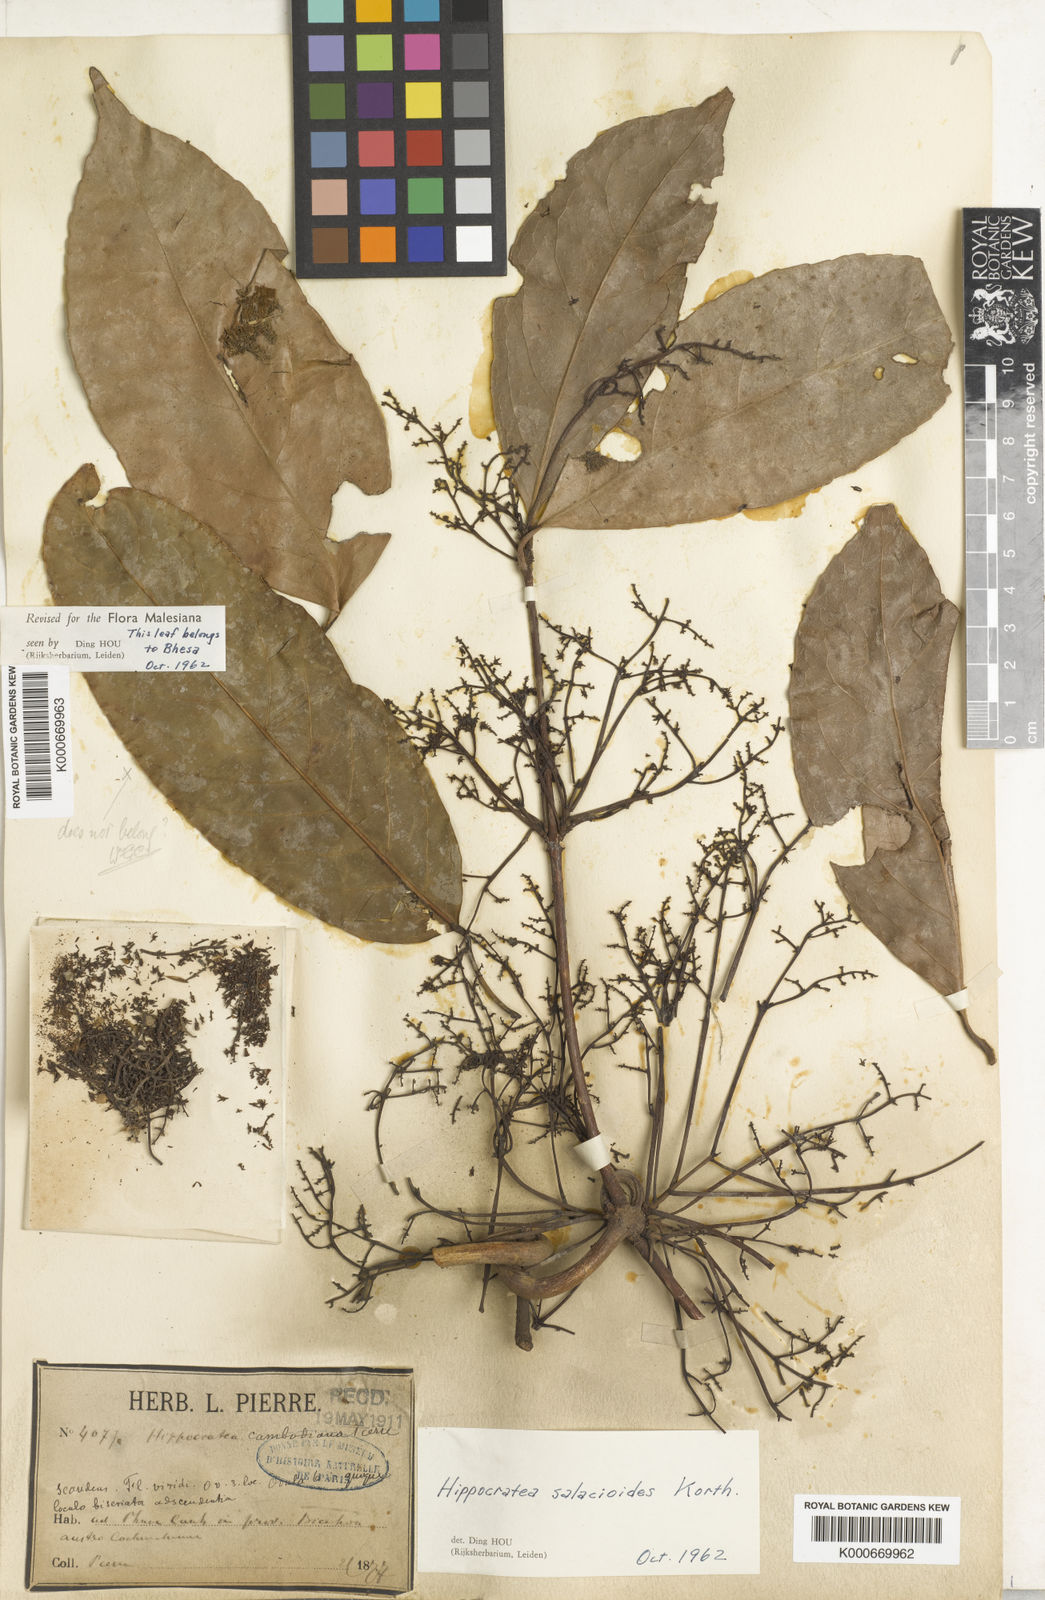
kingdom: Plantae
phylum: Tracheophyta
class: Magnoliopsida
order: Celastrales
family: Celastraceae
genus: Arnicratea
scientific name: Arnicratea grahamii
